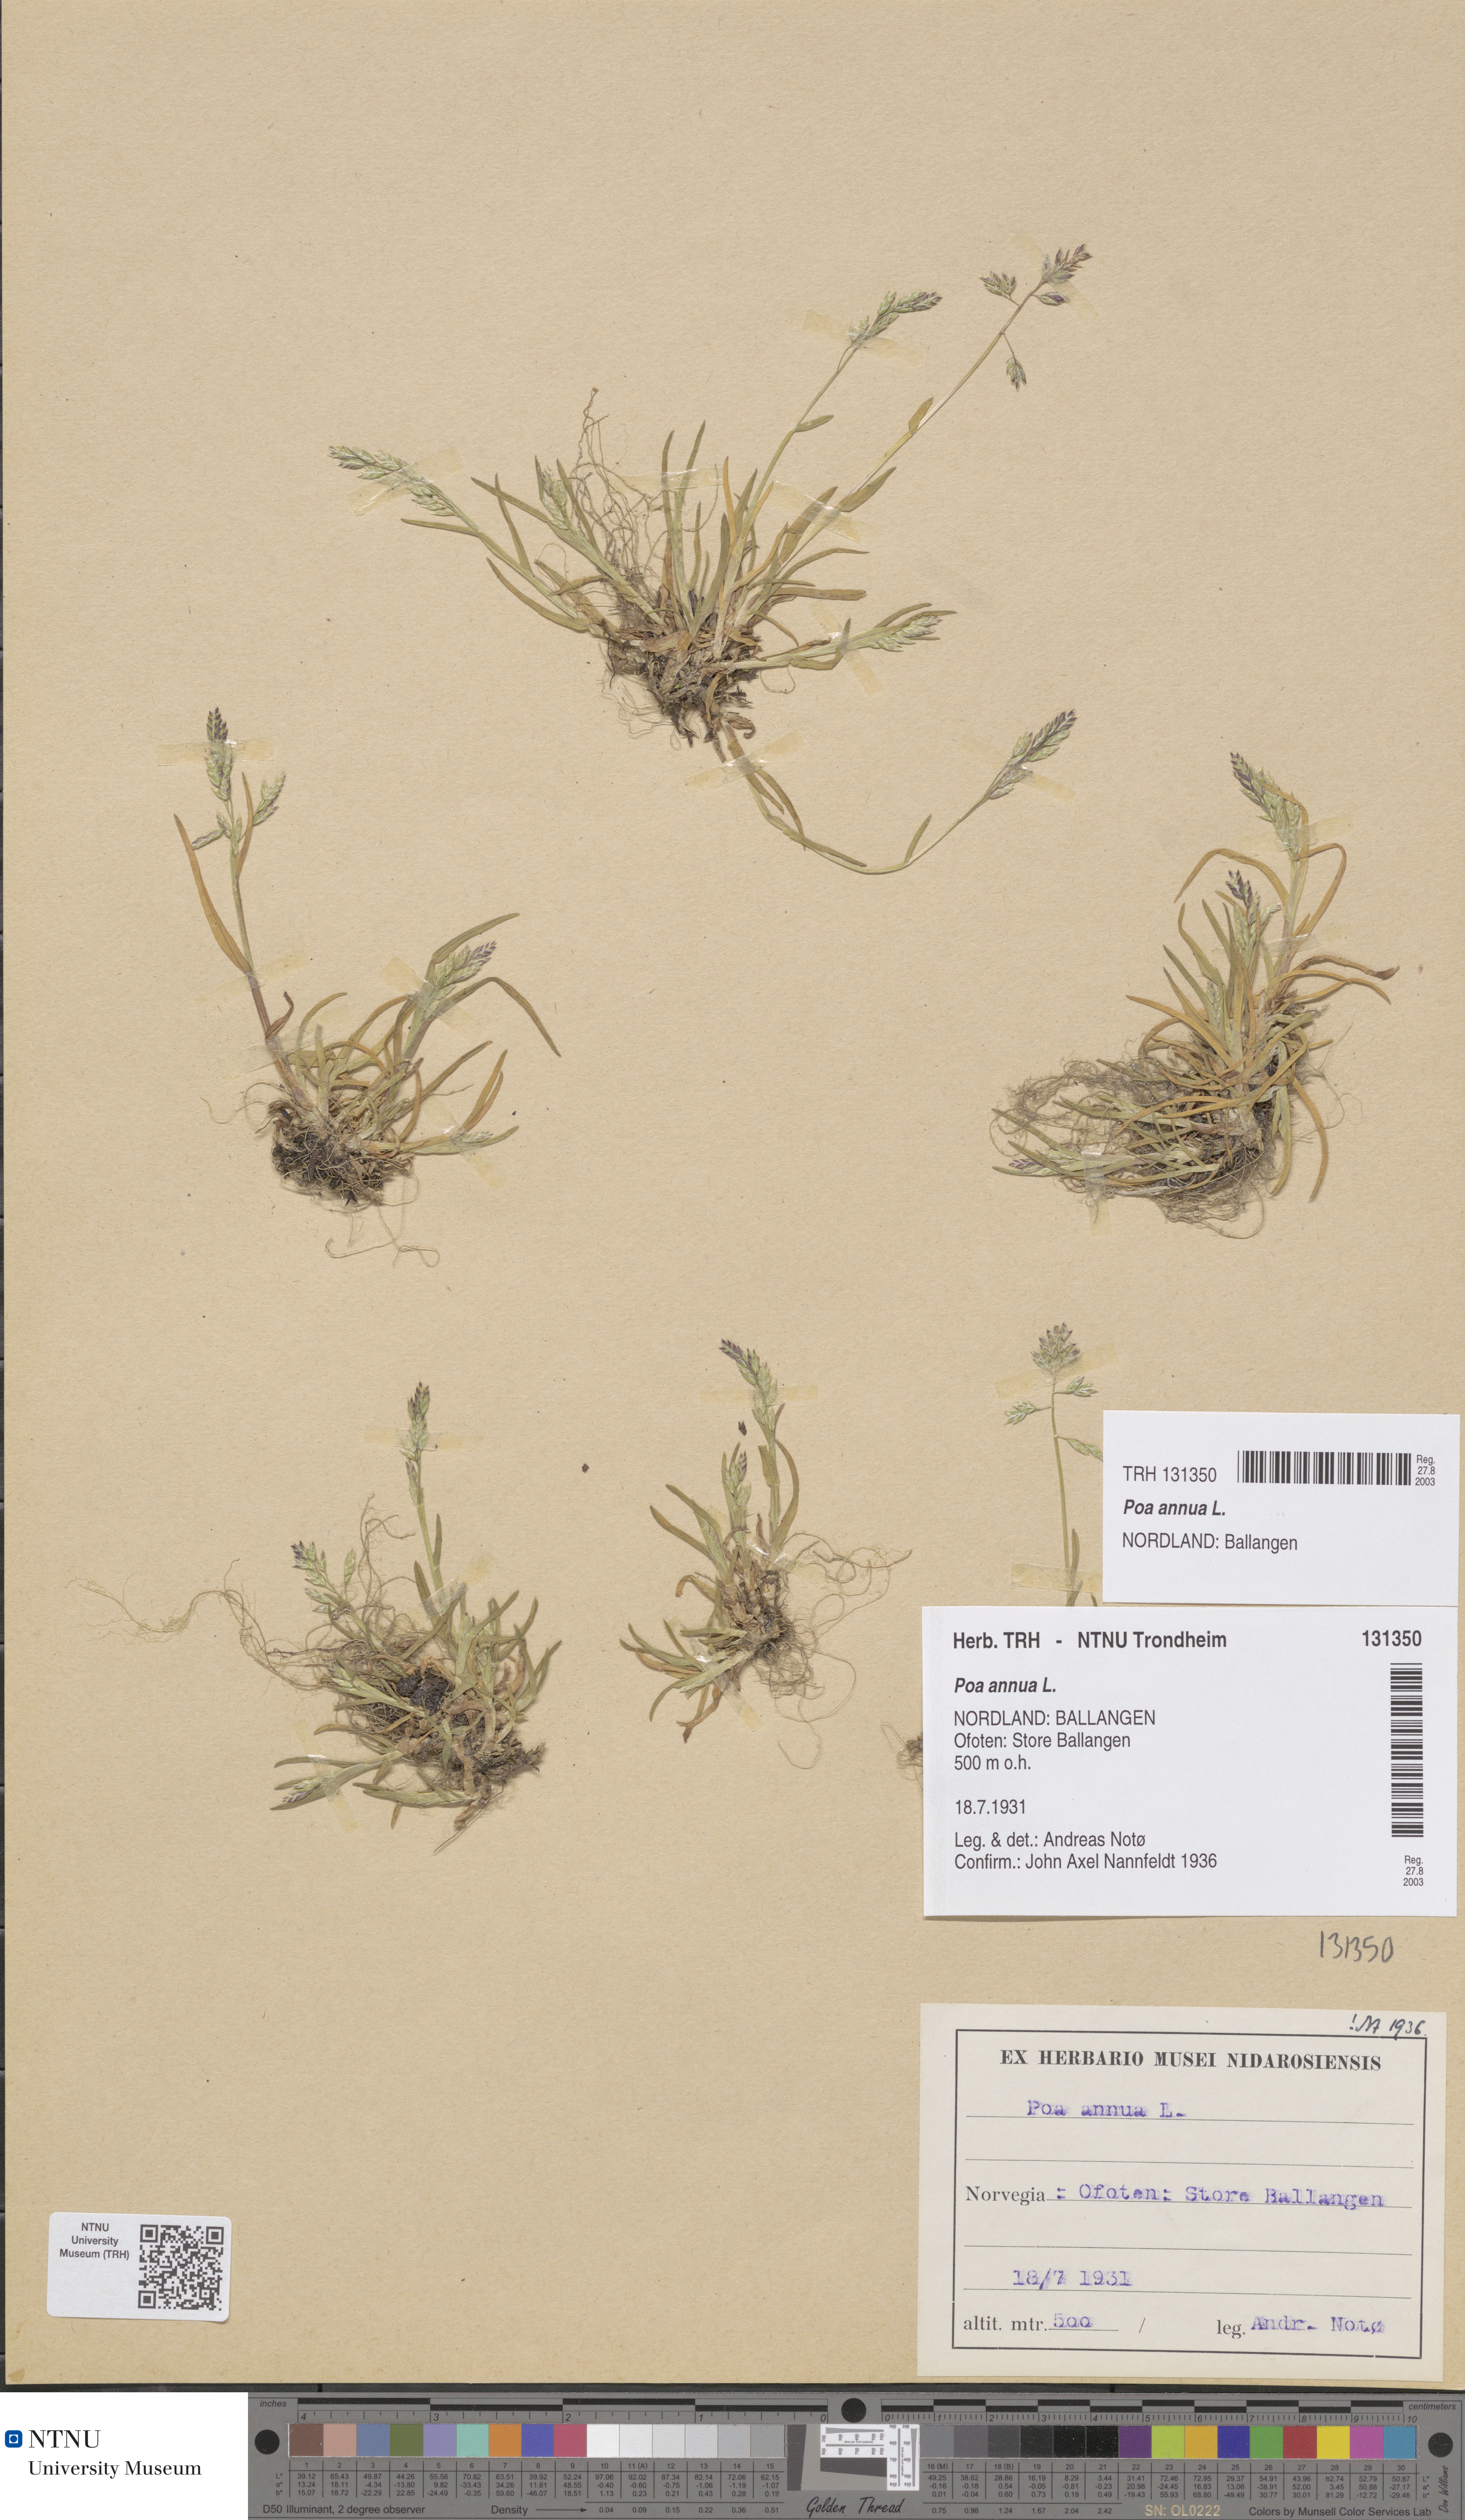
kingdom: Plantae
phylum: Tracheophyta
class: Liliopsida
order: Poales
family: Poaceae
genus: Poa
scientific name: Poa annua
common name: Annual bluegrass
